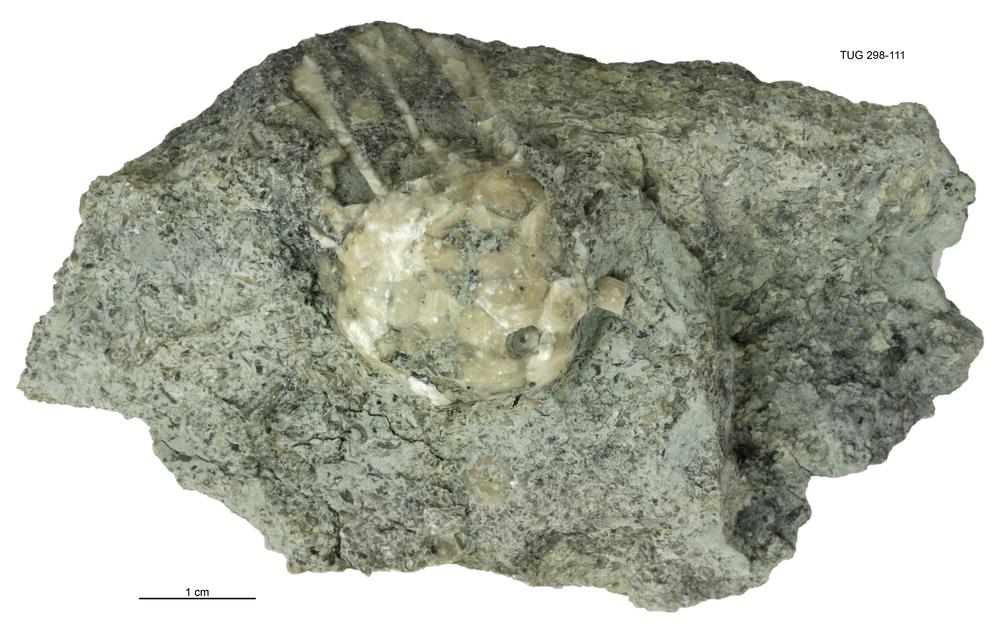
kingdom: Animalia
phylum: Echinodermata
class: Crinoidea
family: Eucalyptocrinitidae
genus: Eucalyptocrinites
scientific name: Eucalyptocrinites
